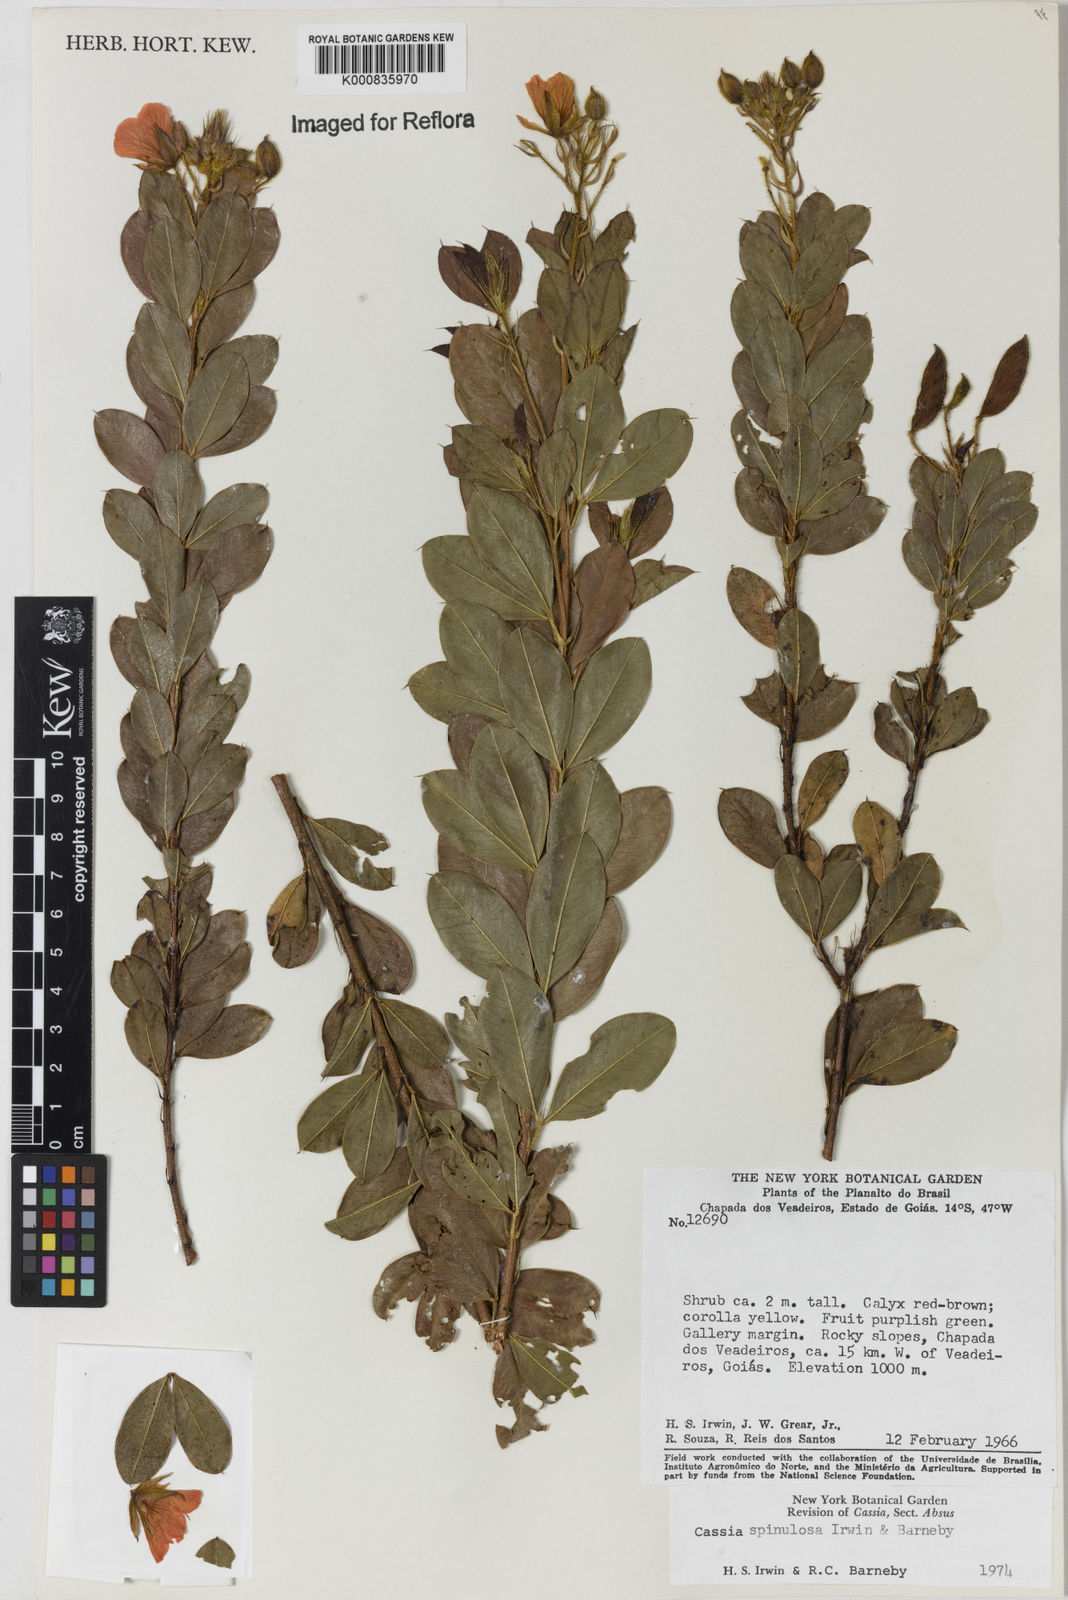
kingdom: Plantae
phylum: Tracheophyta
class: Magnoliopsida
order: Fabales
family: Fabaceae
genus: Chamaecrista
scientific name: Chamaecrista spinulosa
